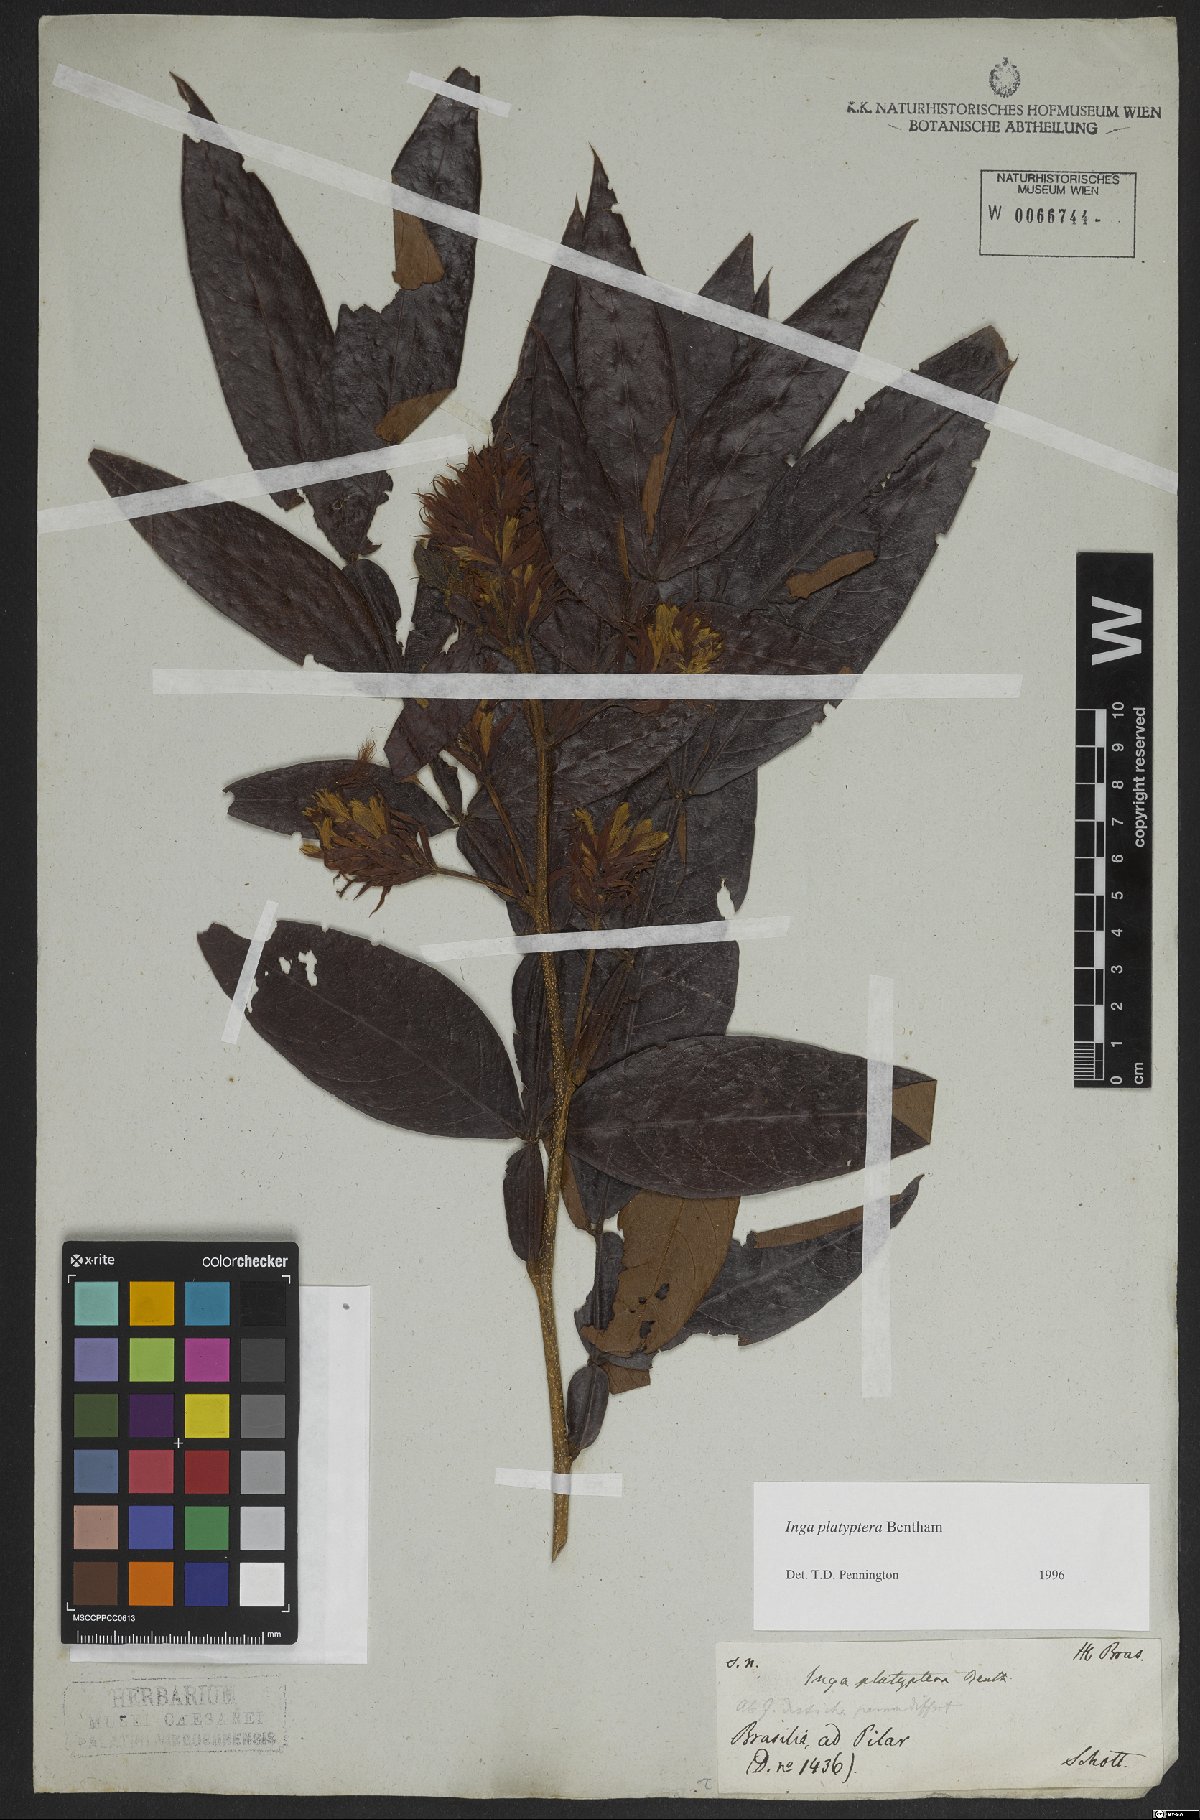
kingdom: Plantae
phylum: Tracheophyta
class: Magnoliopsida
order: Fabales
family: Fabaceae
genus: Inga
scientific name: Inga platyptera
